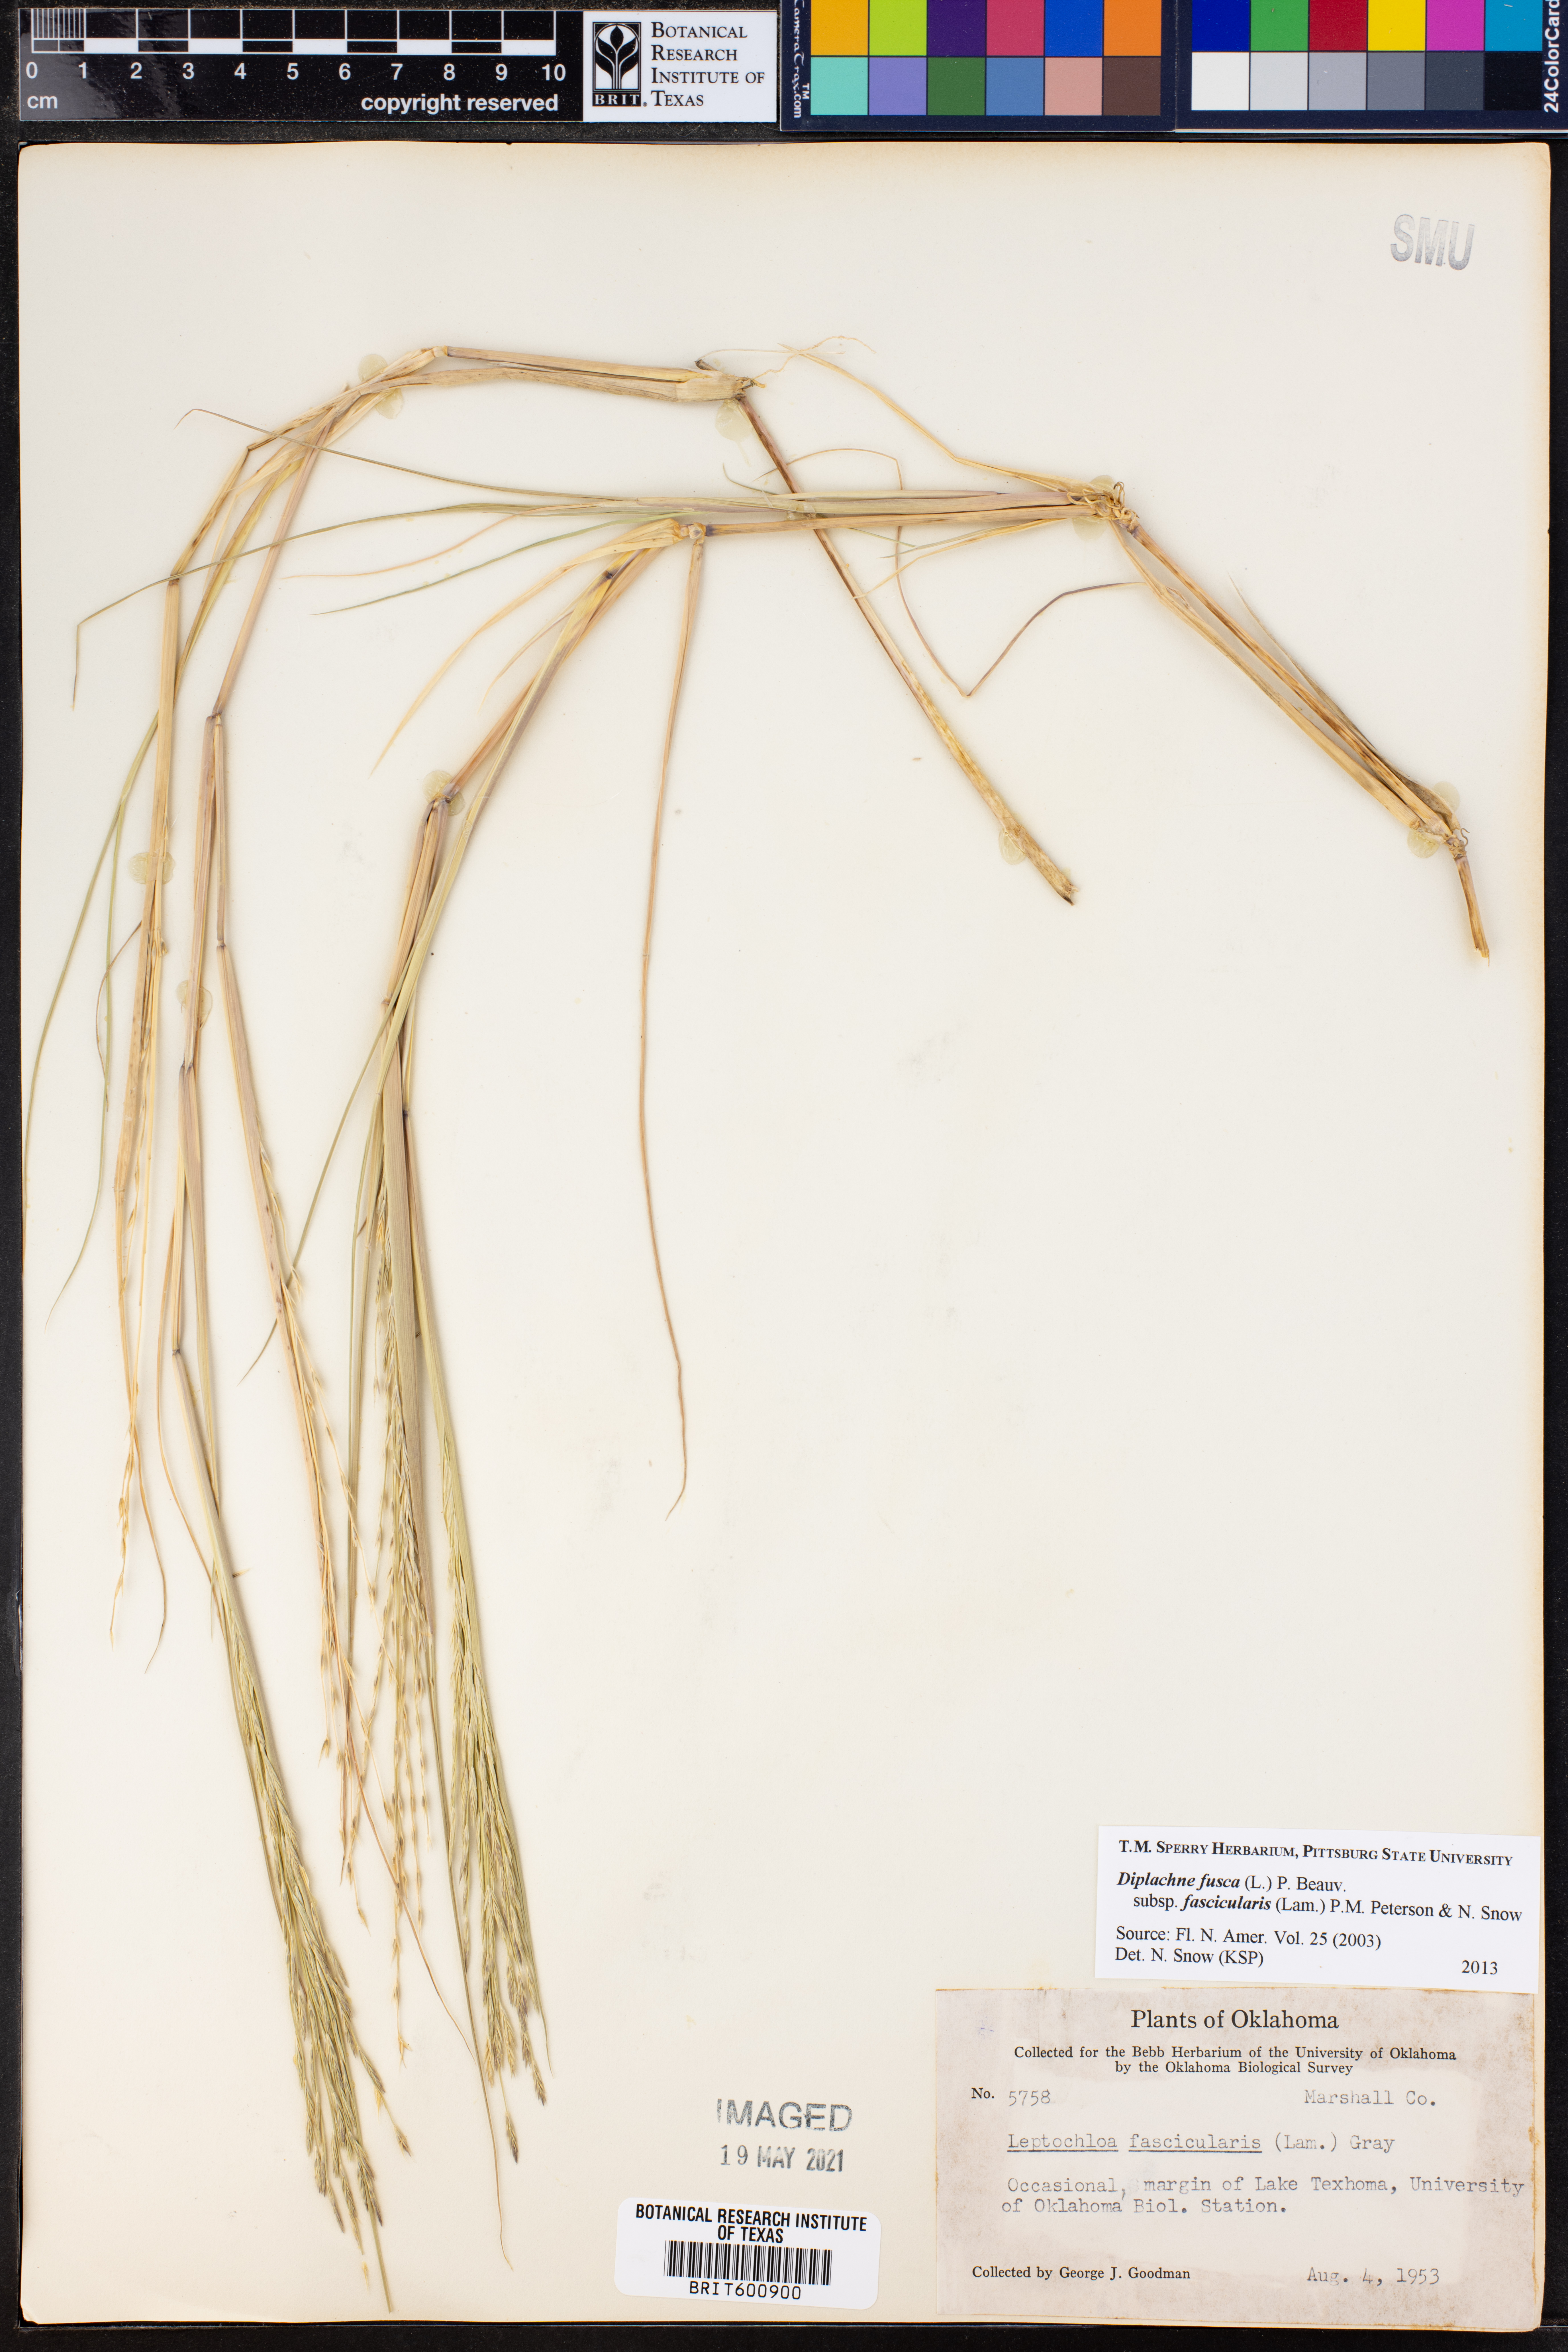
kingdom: Plantae
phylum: Tracheophyta
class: Liliopsida
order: Poales
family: Poaceae
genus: Diplachne
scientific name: Diplachne fusca
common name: Brown beetle grass
